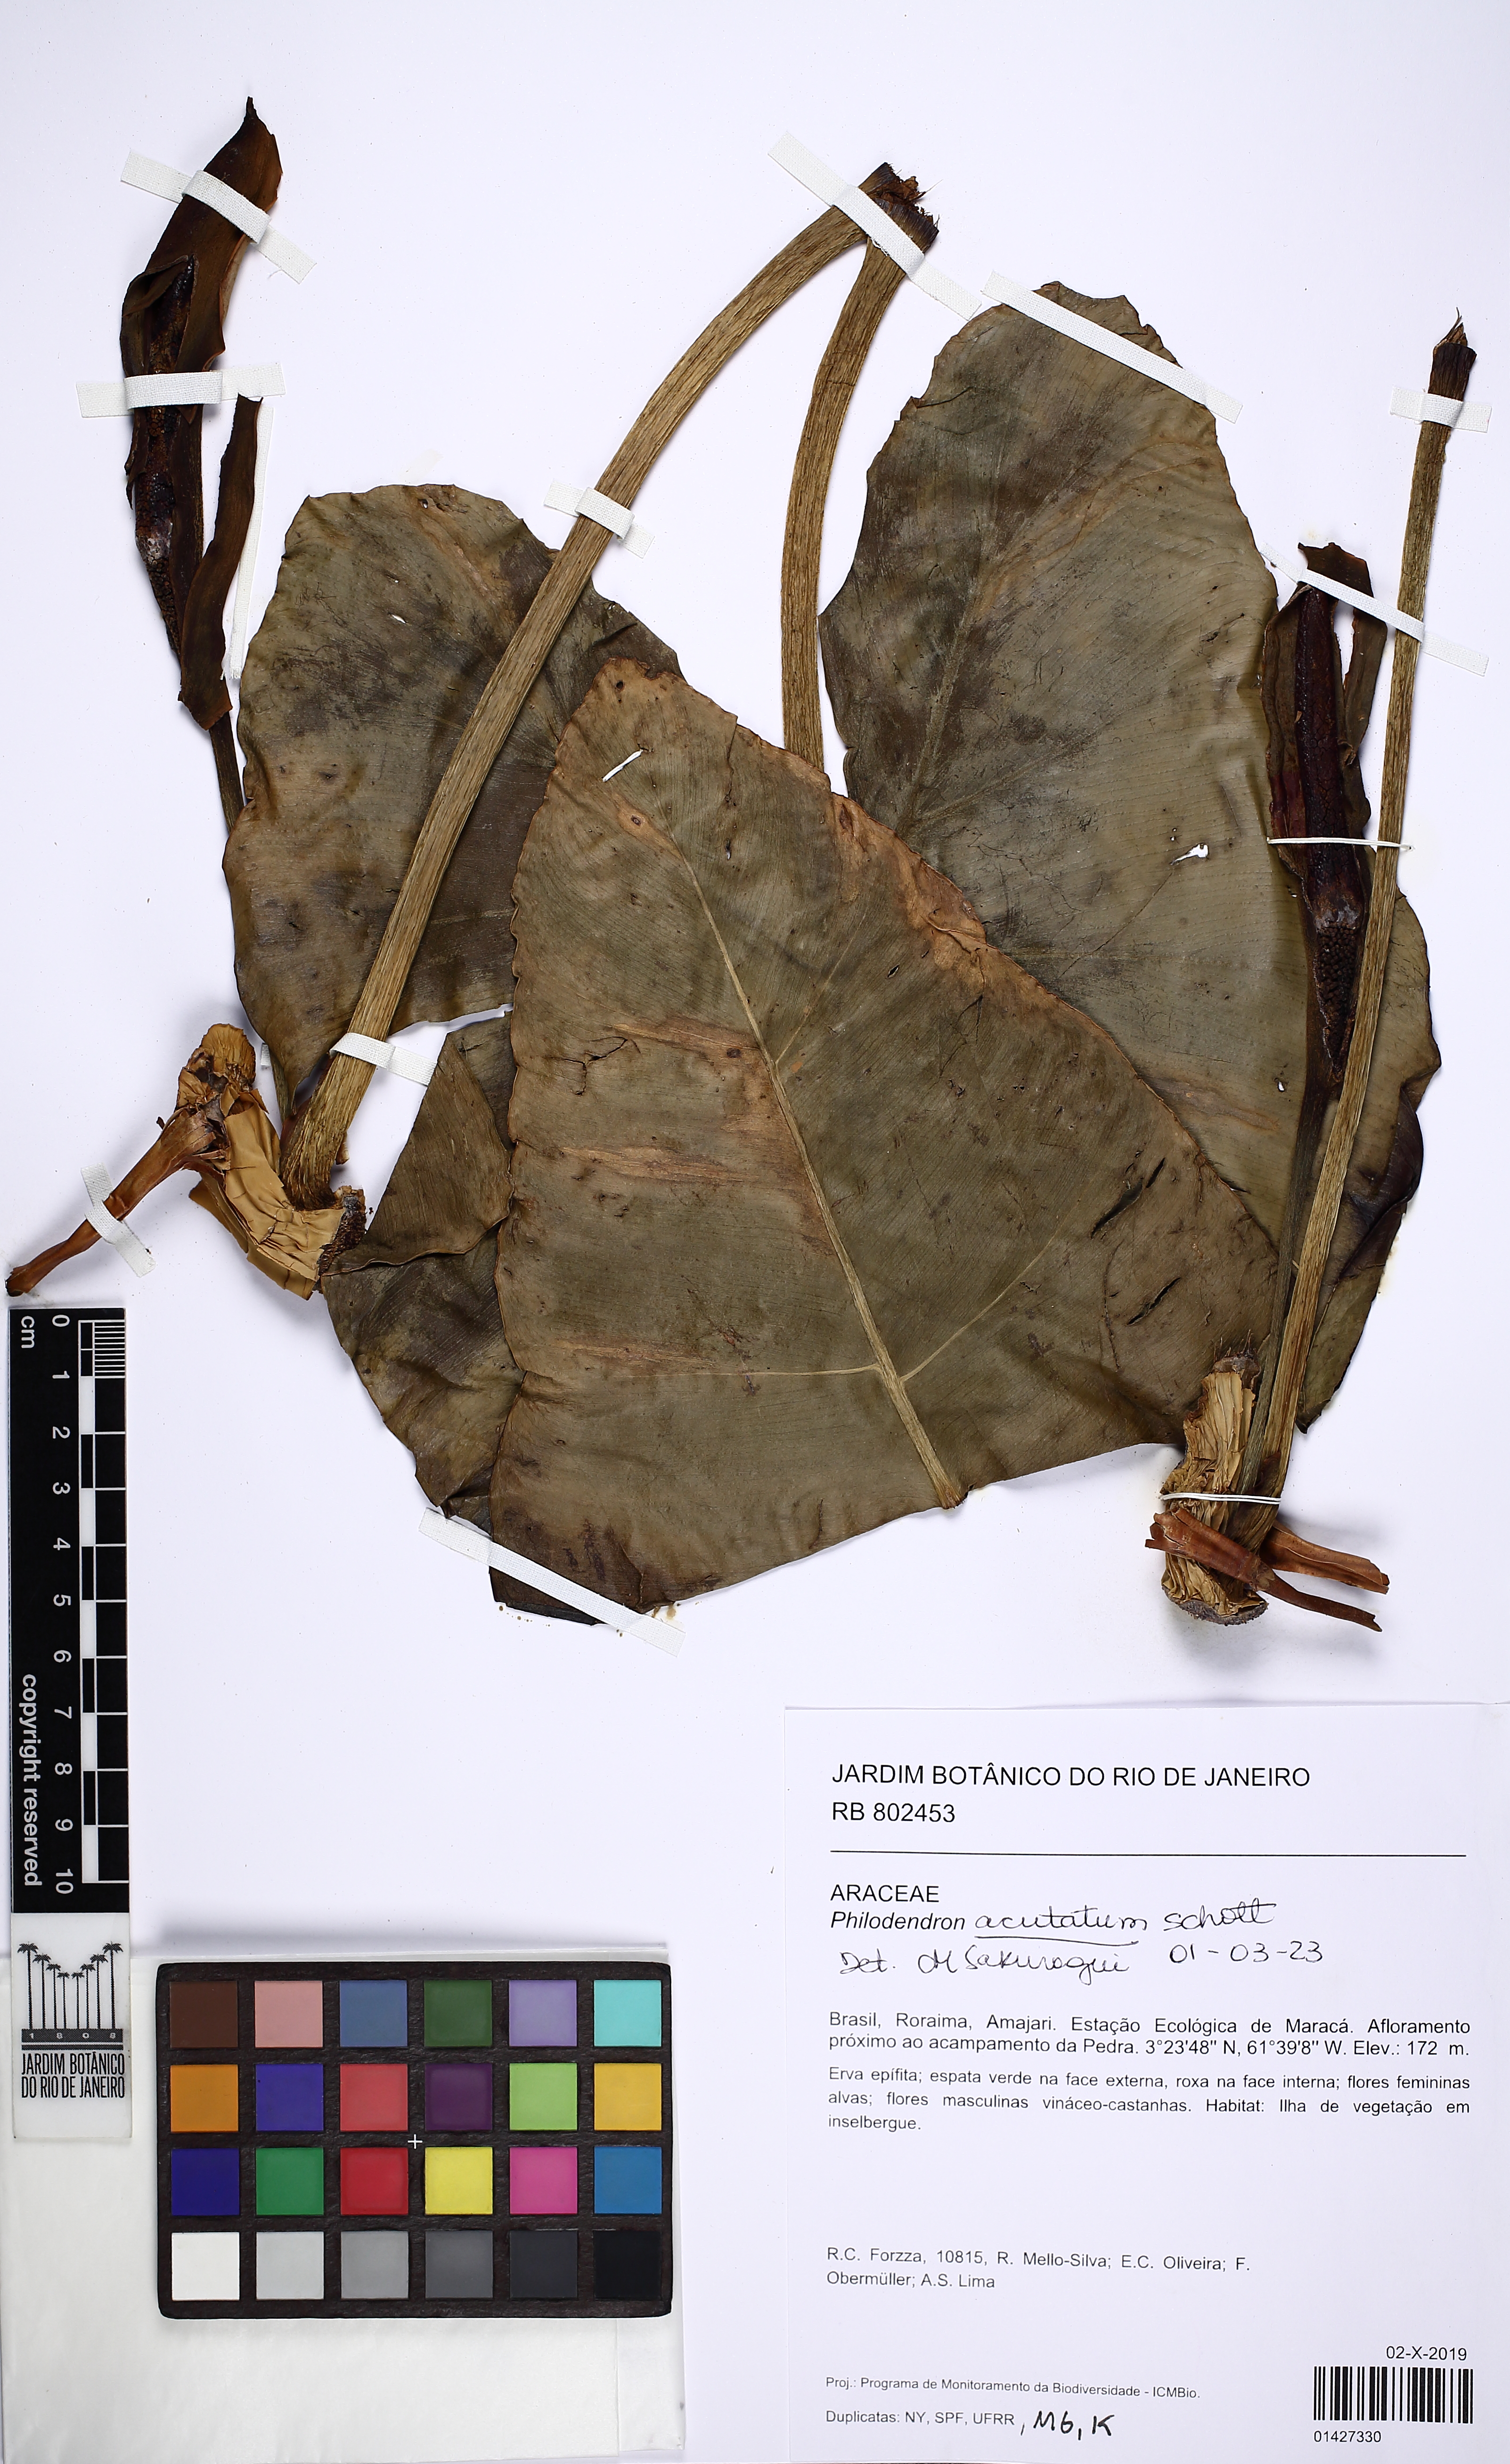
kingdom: Plantae
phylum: Tracheophyta
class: Liliopsida
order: Alismatales
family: Araceae
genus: Philodendron
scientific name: Philodendron quinquenervium
